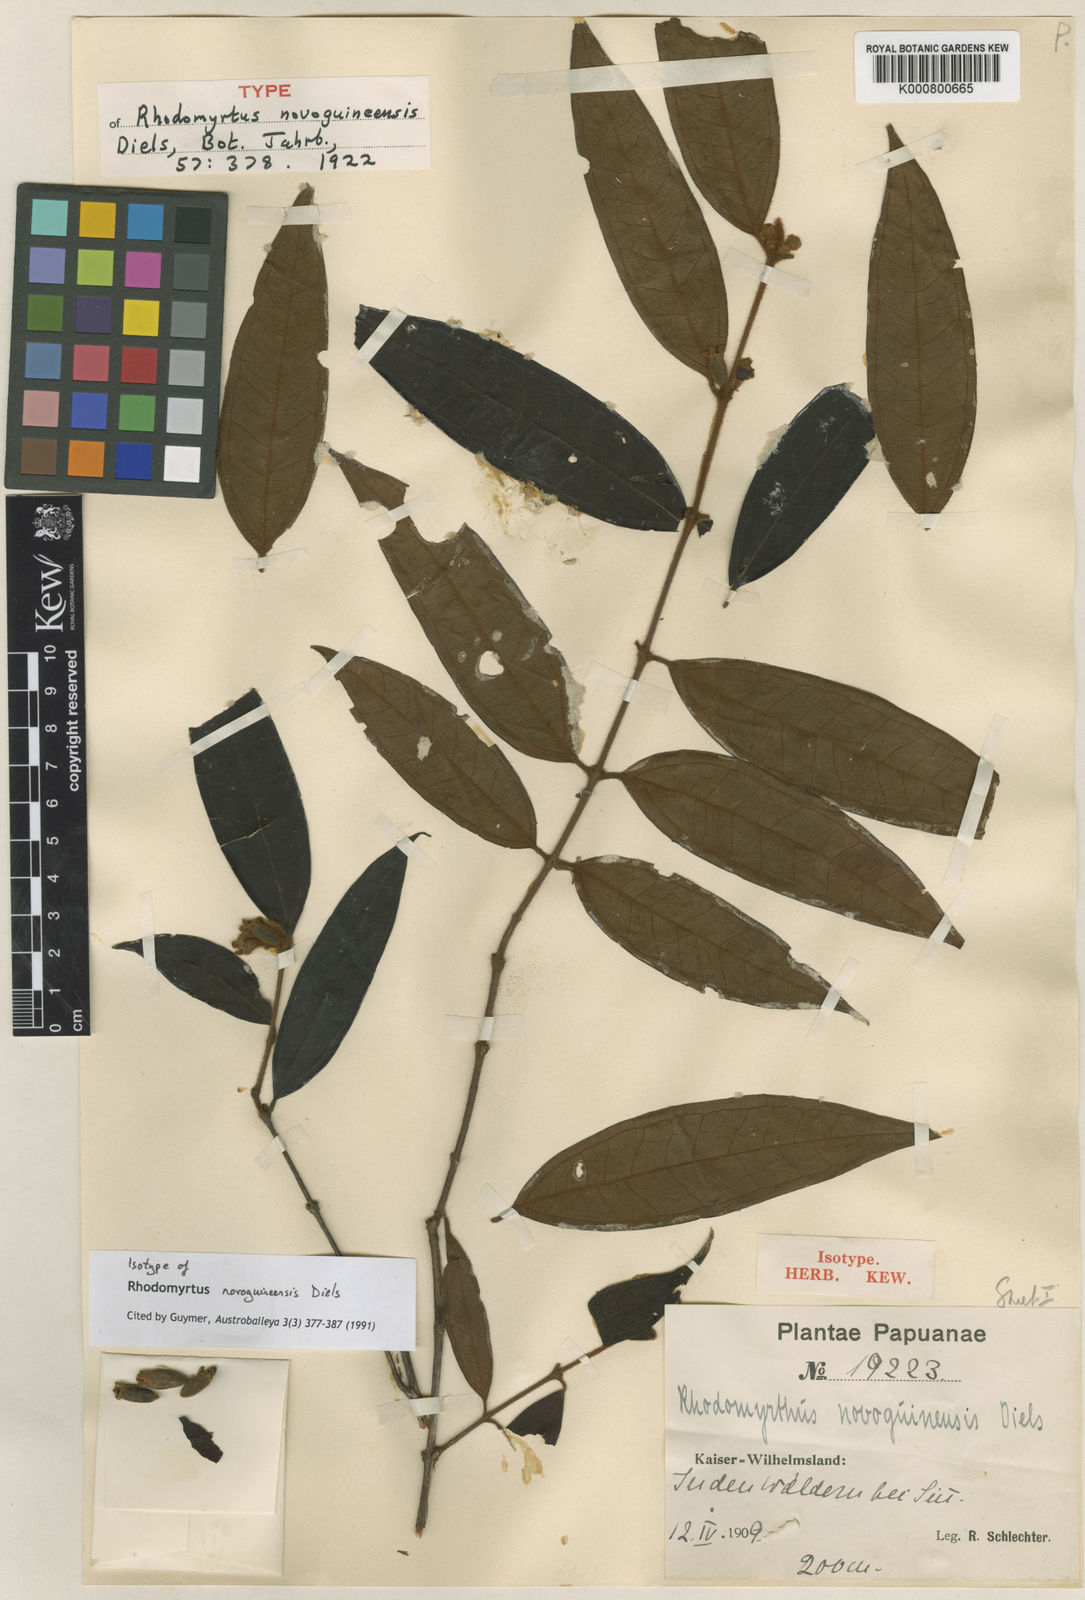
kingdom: Plantae
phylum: Tracheophyta
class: Magnoliopsida
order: Myrtales
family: Myrtaceae
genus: Rhodomyrtus
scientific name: Rhodomyrtus trineura
